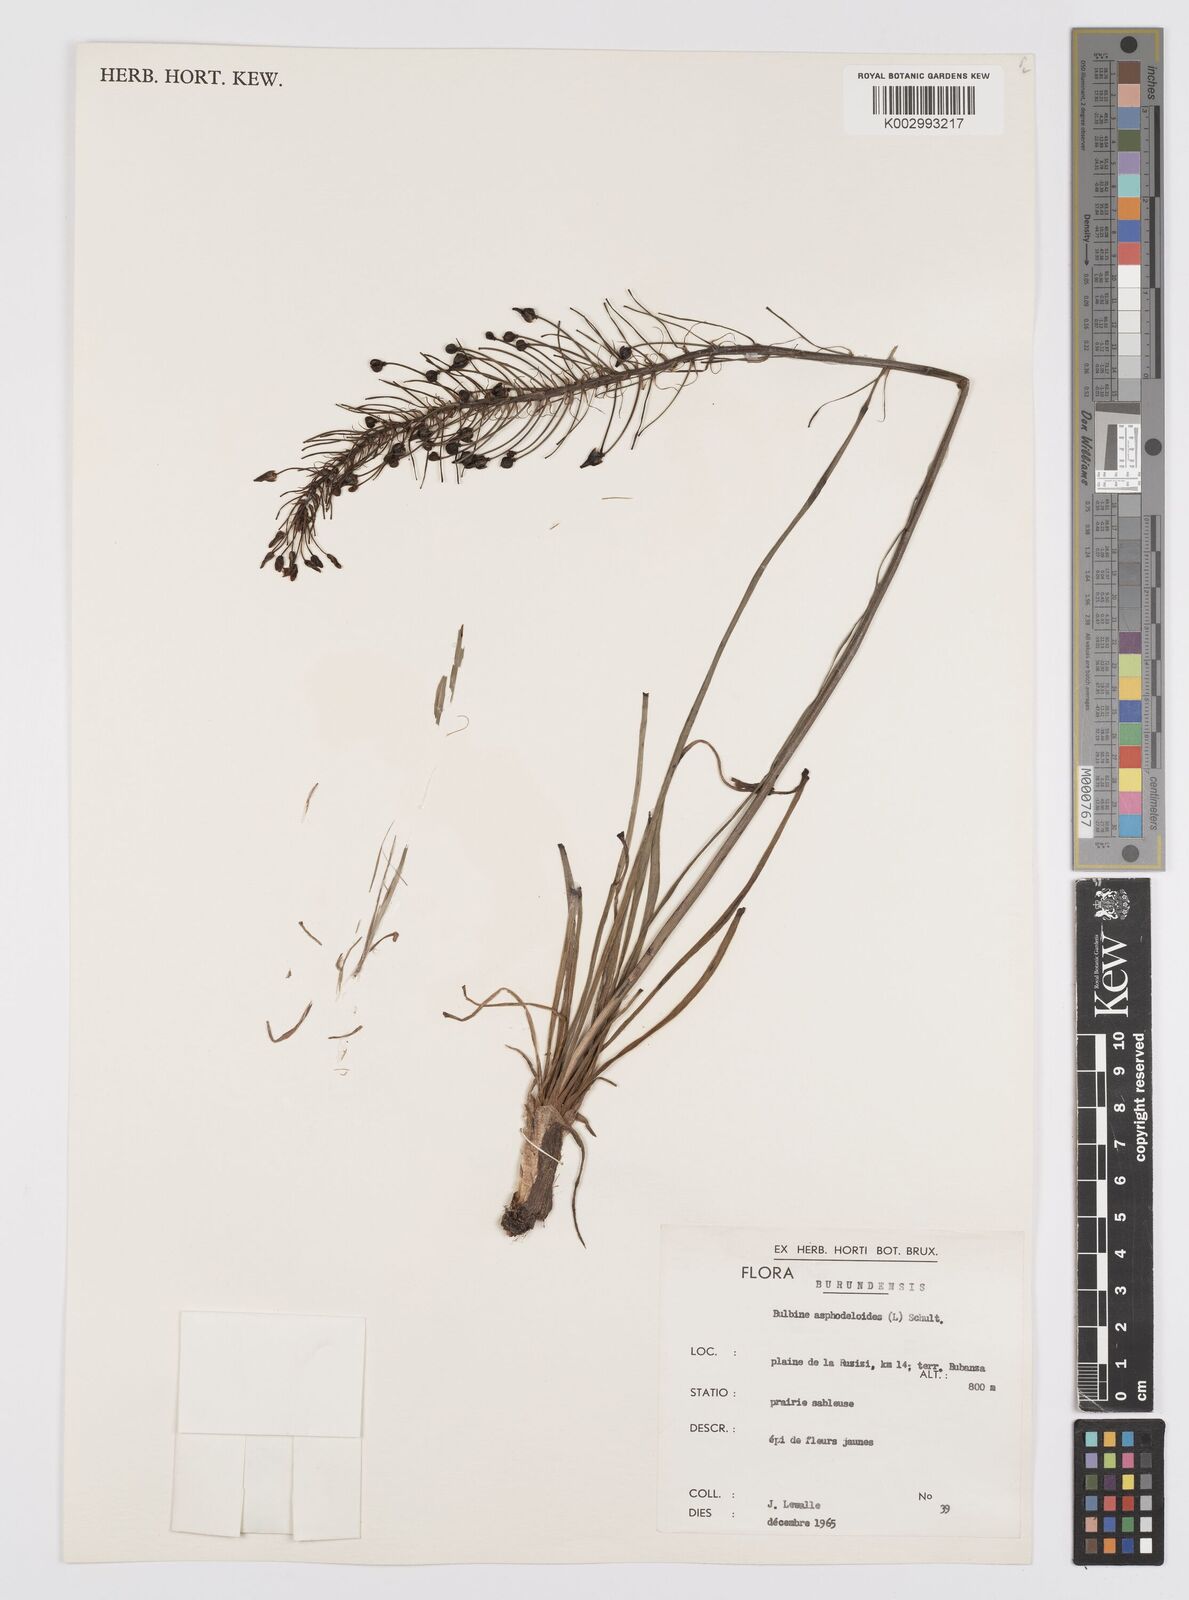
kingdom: Plantae
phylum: Tracheophyta
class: Liliopsida
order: Asparagales
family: Asphodelaceae
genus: Bulbine
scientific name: Bulbine abyssinica
